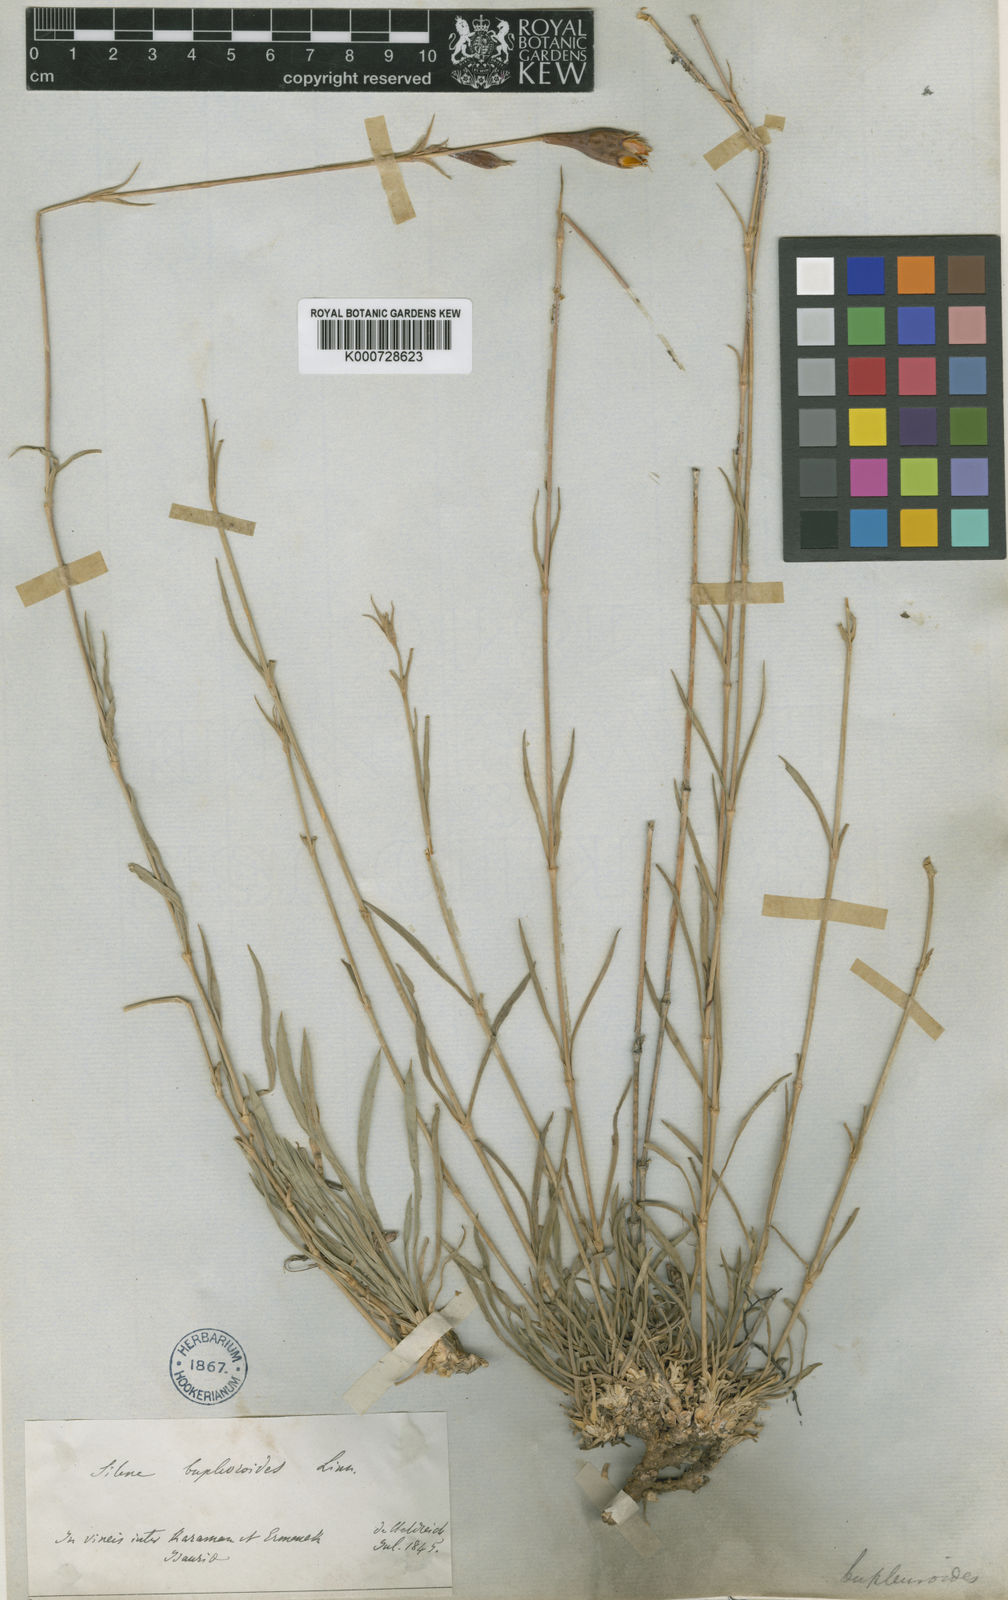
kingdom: Plantae
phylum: Tracheophyta
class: Magnoliopsida
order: Caryophyllales
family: Caryophyllaceae
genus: Silene
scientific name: Silene caramanica
